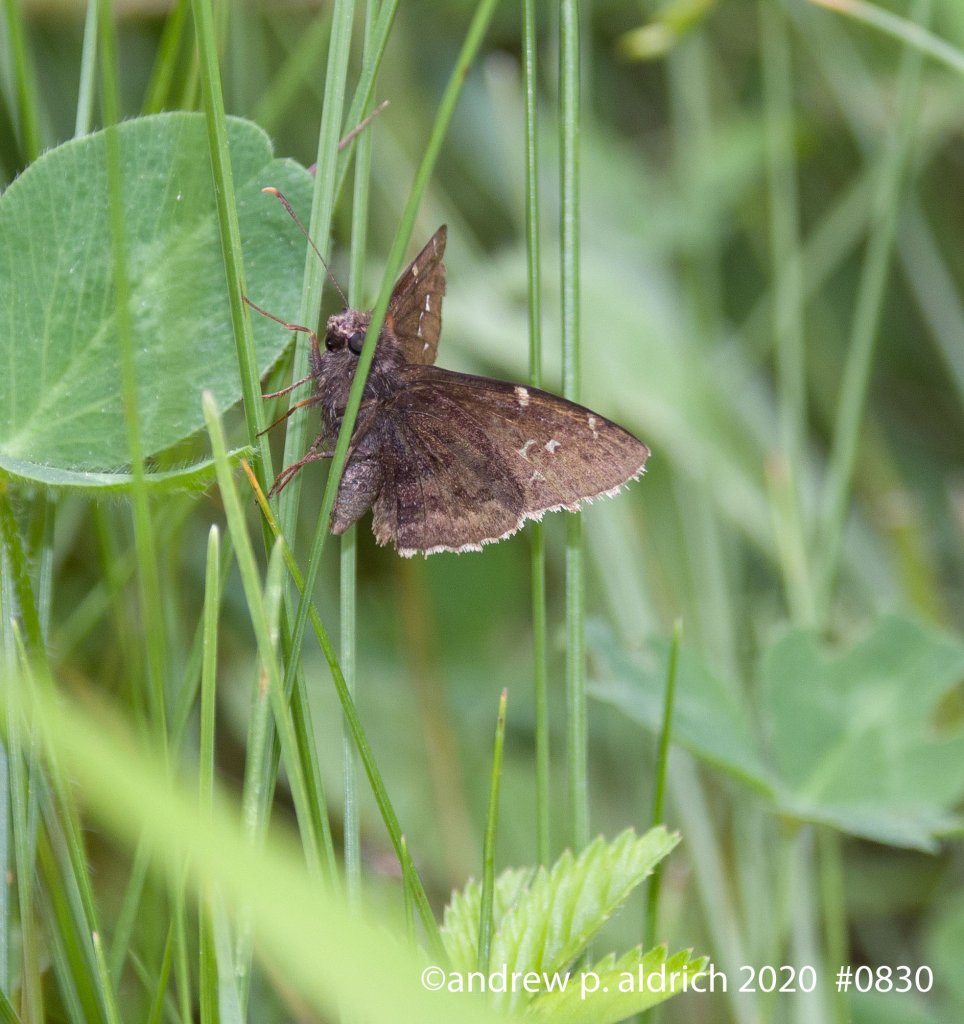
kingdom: Animalia
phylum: Arthropoda
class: Insecta
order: Lepidoptera
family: Hesperiidae
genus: Autochton
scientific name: Autochton
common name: Northern Cloudywing
